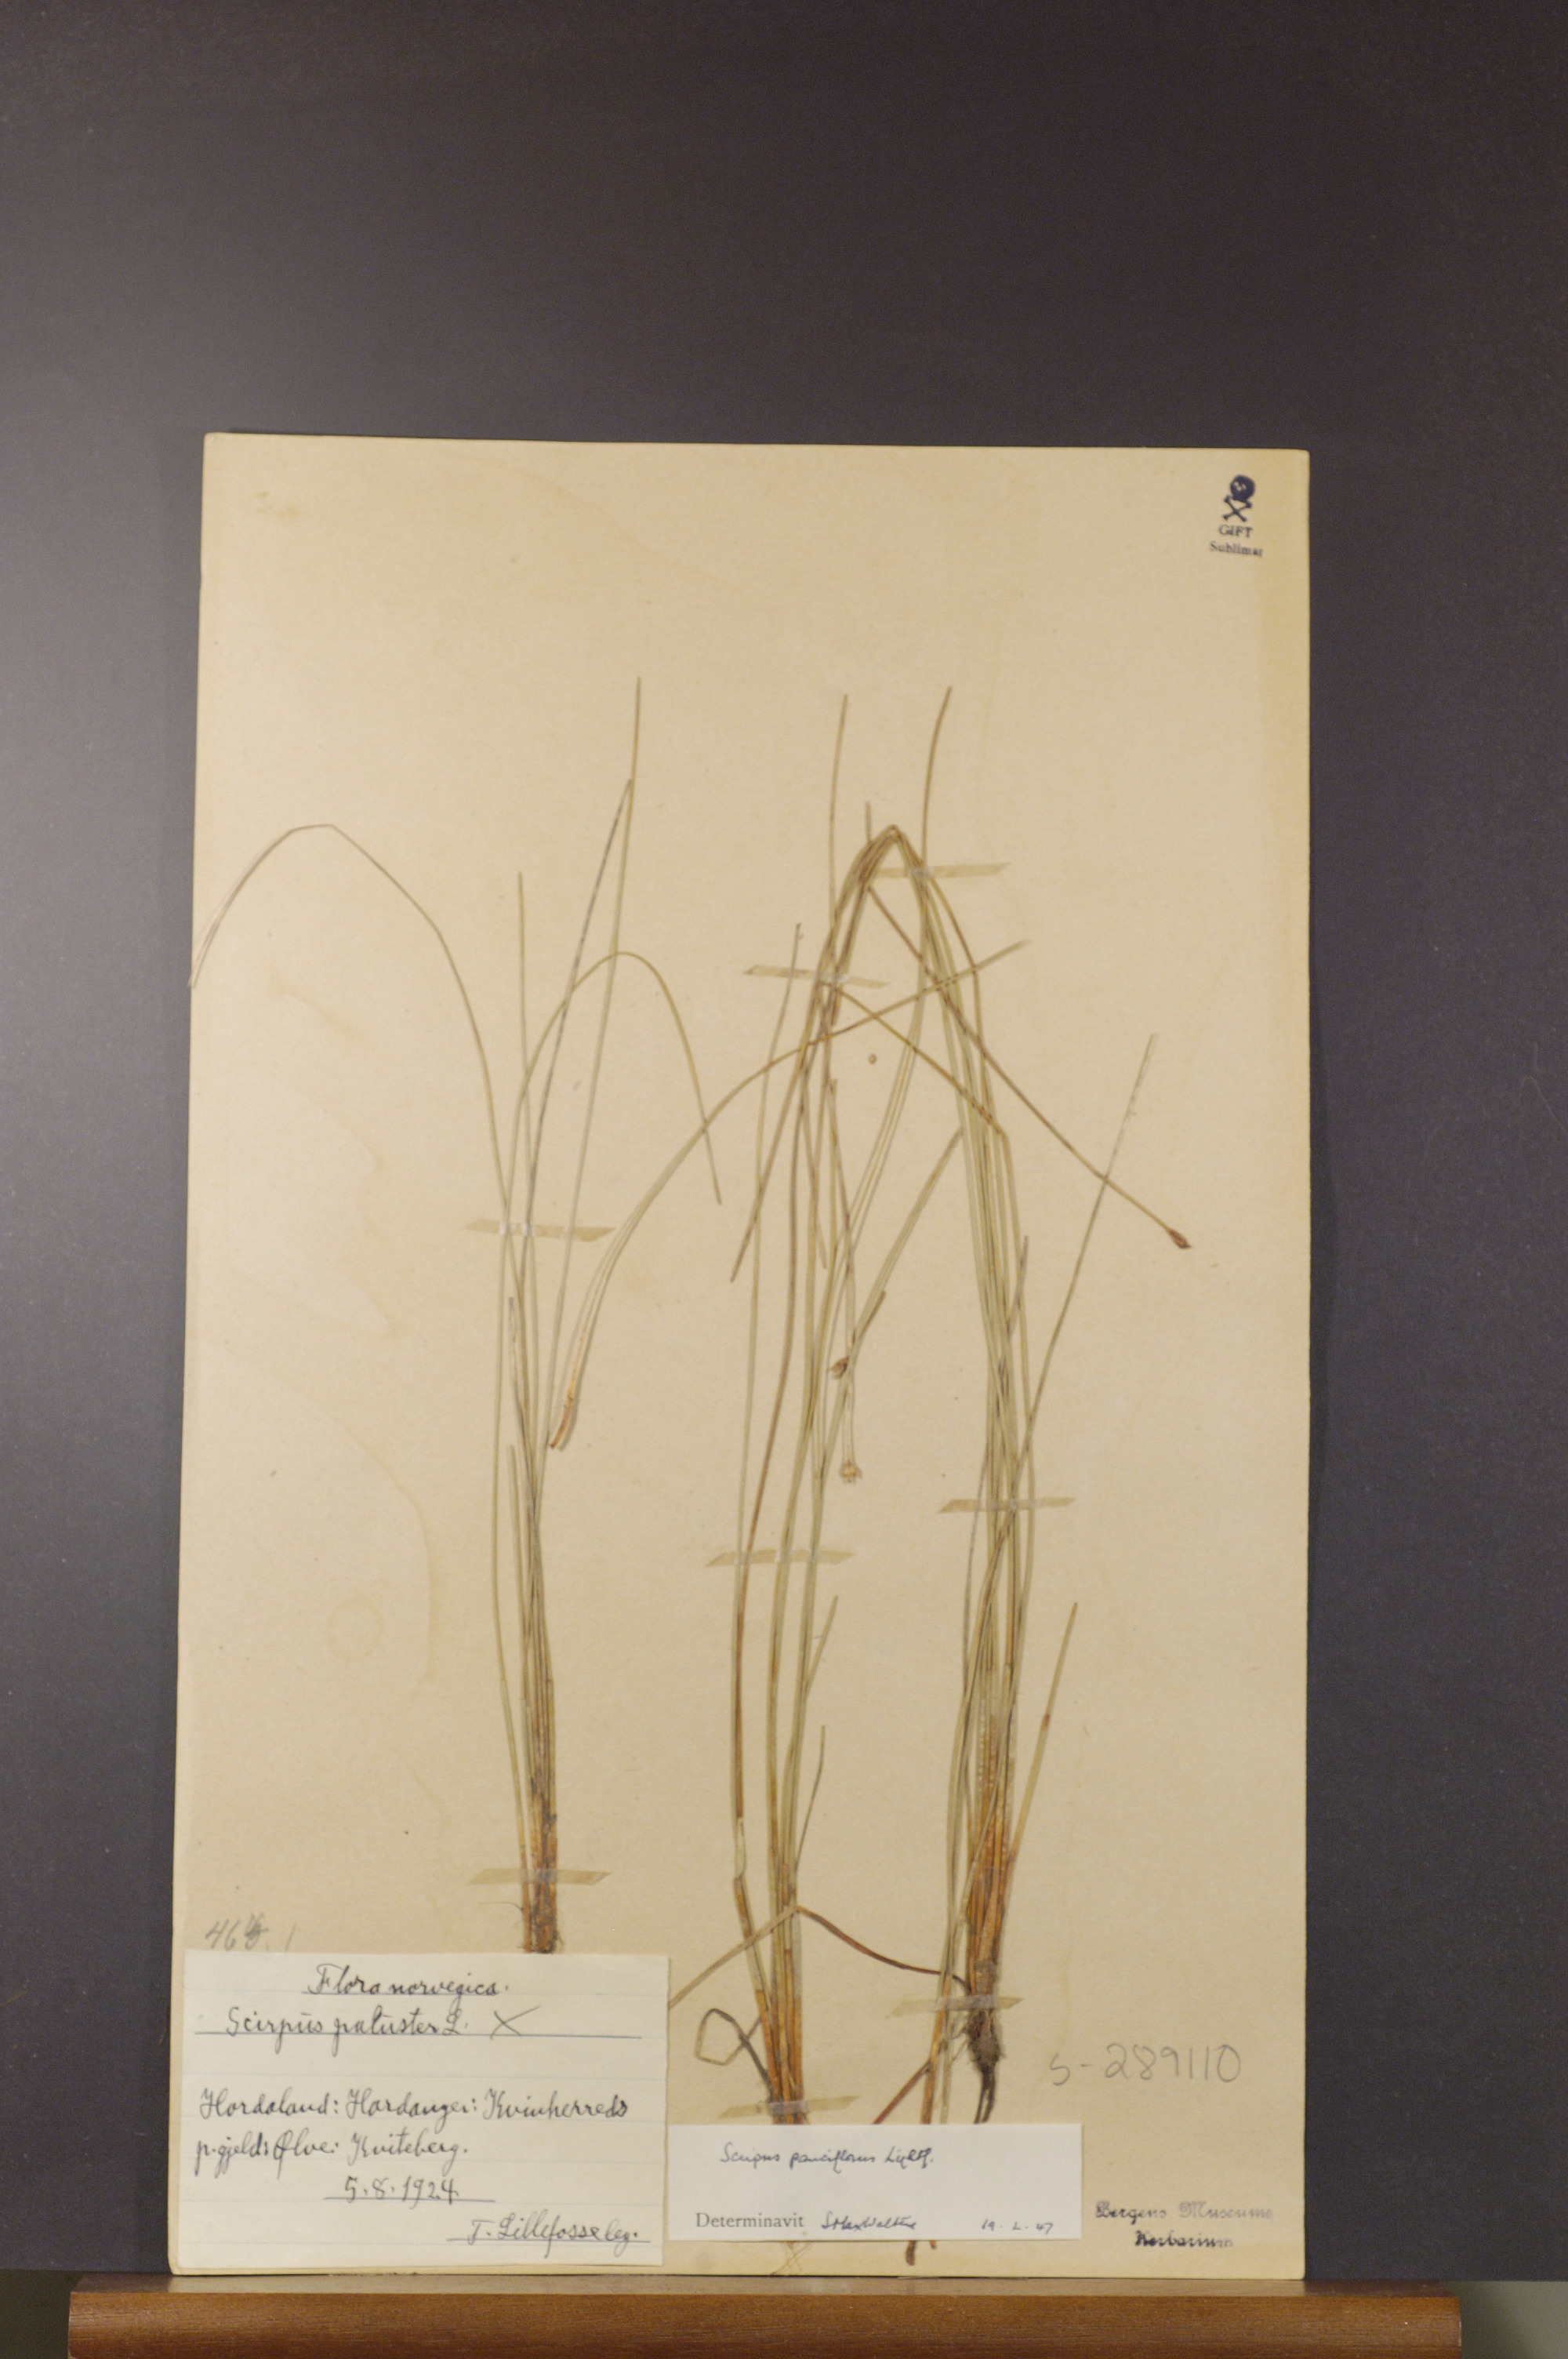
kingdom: Plantae
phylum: Tracheophyta
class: Liliopsida
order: Poales
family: Cyperaceae
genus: Eleocharis
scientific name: Eleocharis quinqueflora
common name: Few-flowered spike-rush
